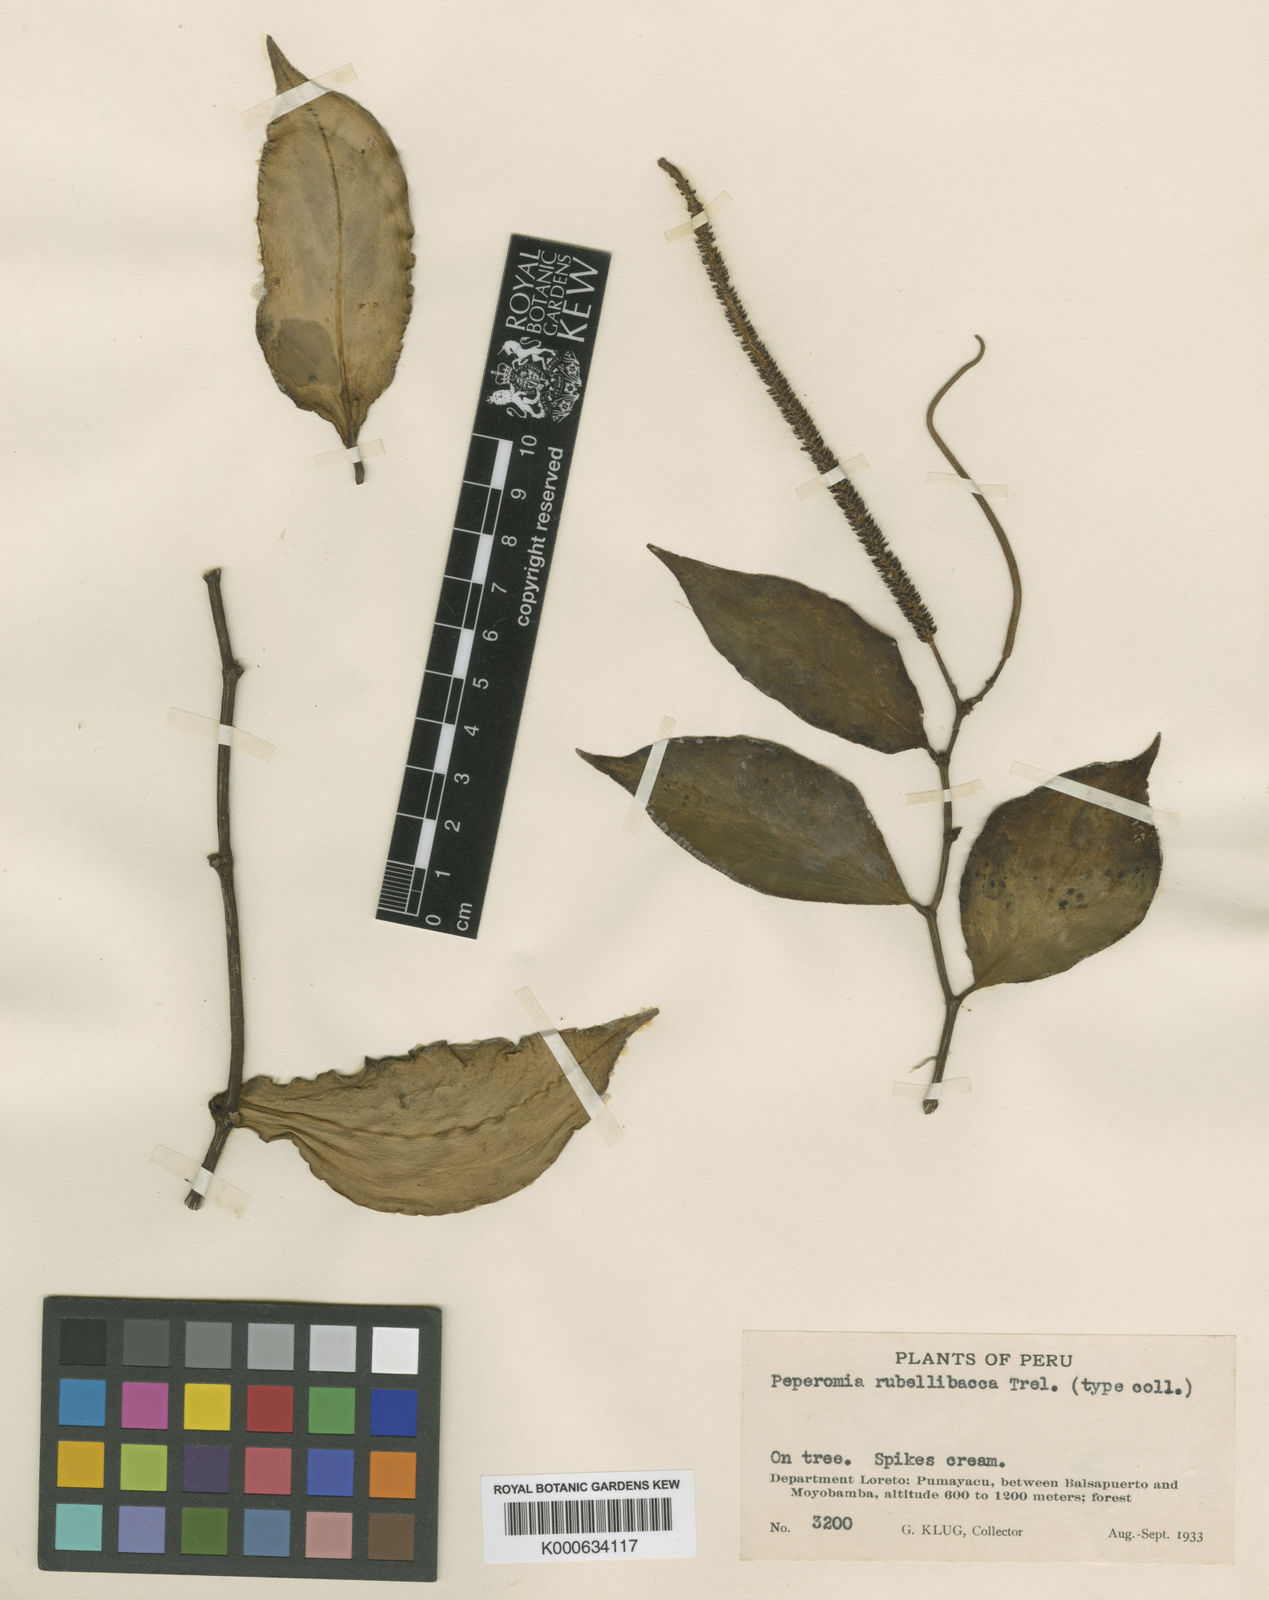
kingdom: Plantae
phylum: Tracheophyta
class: Magnoliopsida
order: Piperales
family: Piperaceae
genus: Peperomia
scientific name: Peperomia
